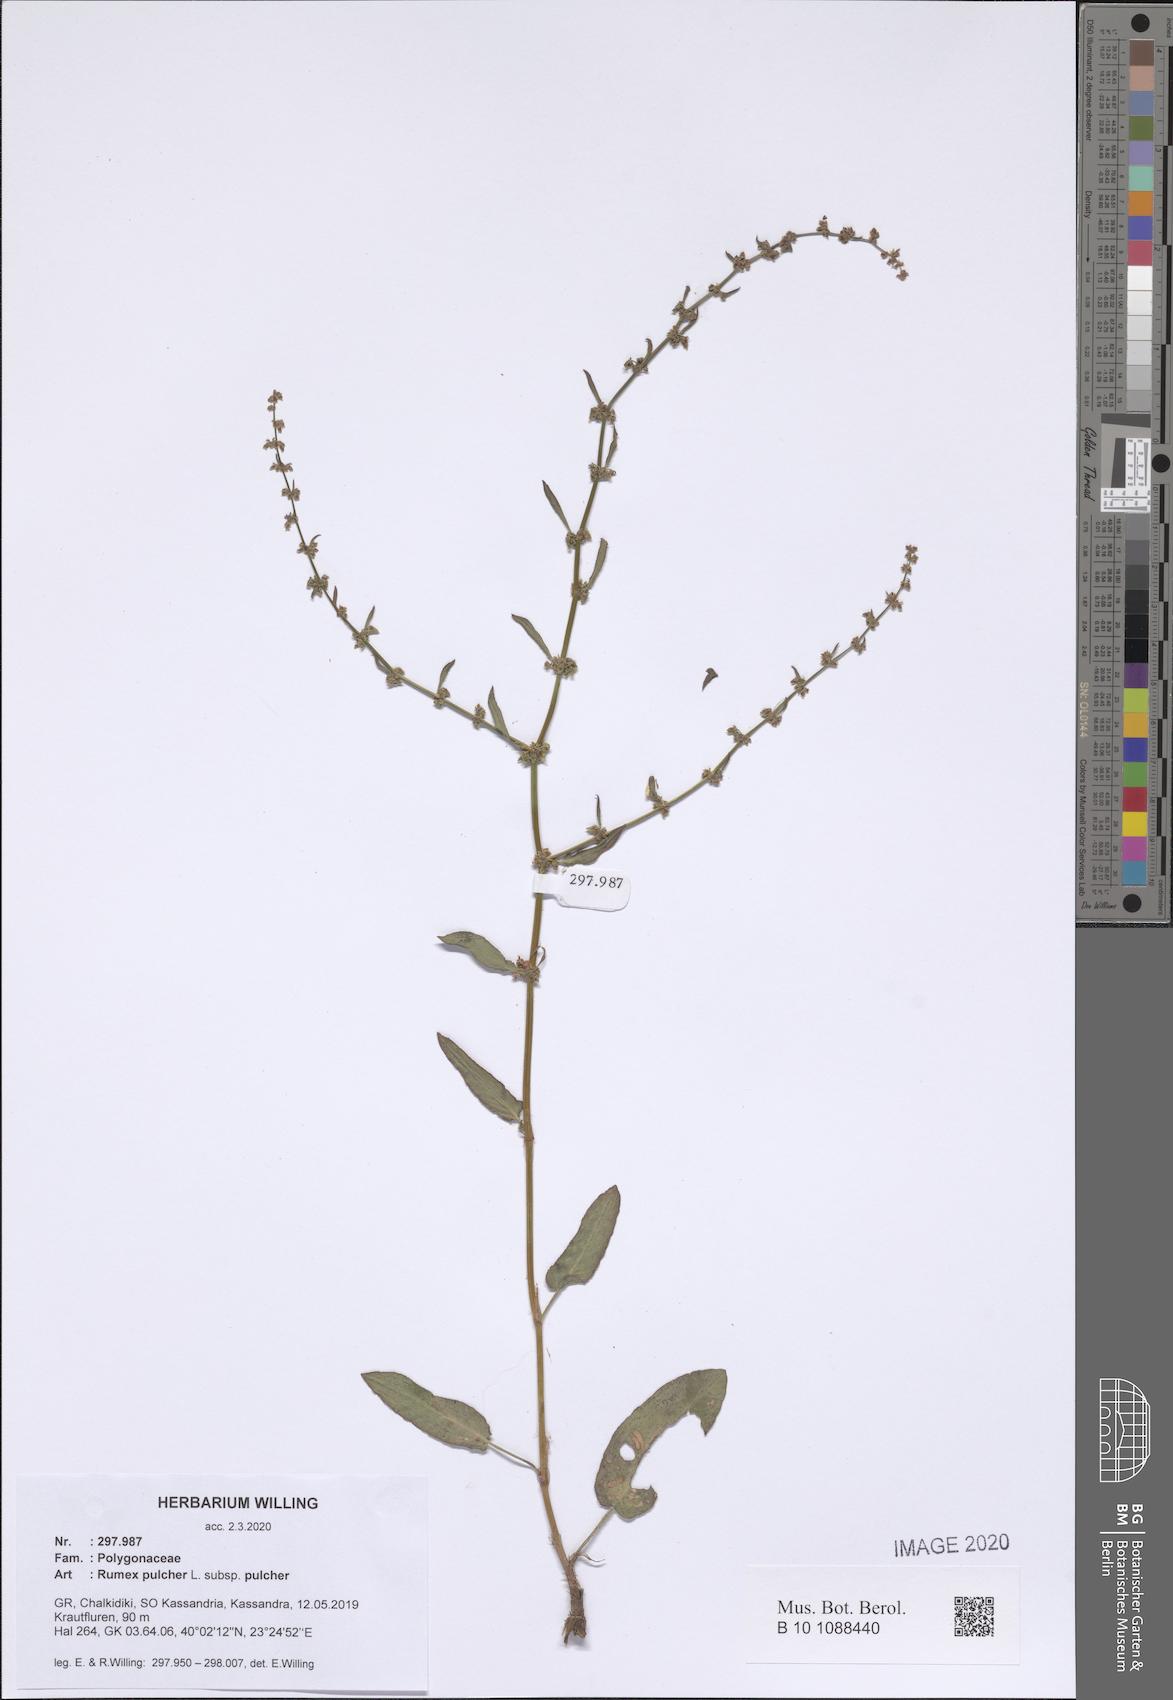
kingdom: Plantae
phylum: Tracheophyta
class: Magnoliopsida
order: Caryophyllales
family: Polygonaceae
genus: Rumex
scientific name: Rumex pulcher
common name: Fiddle dock
